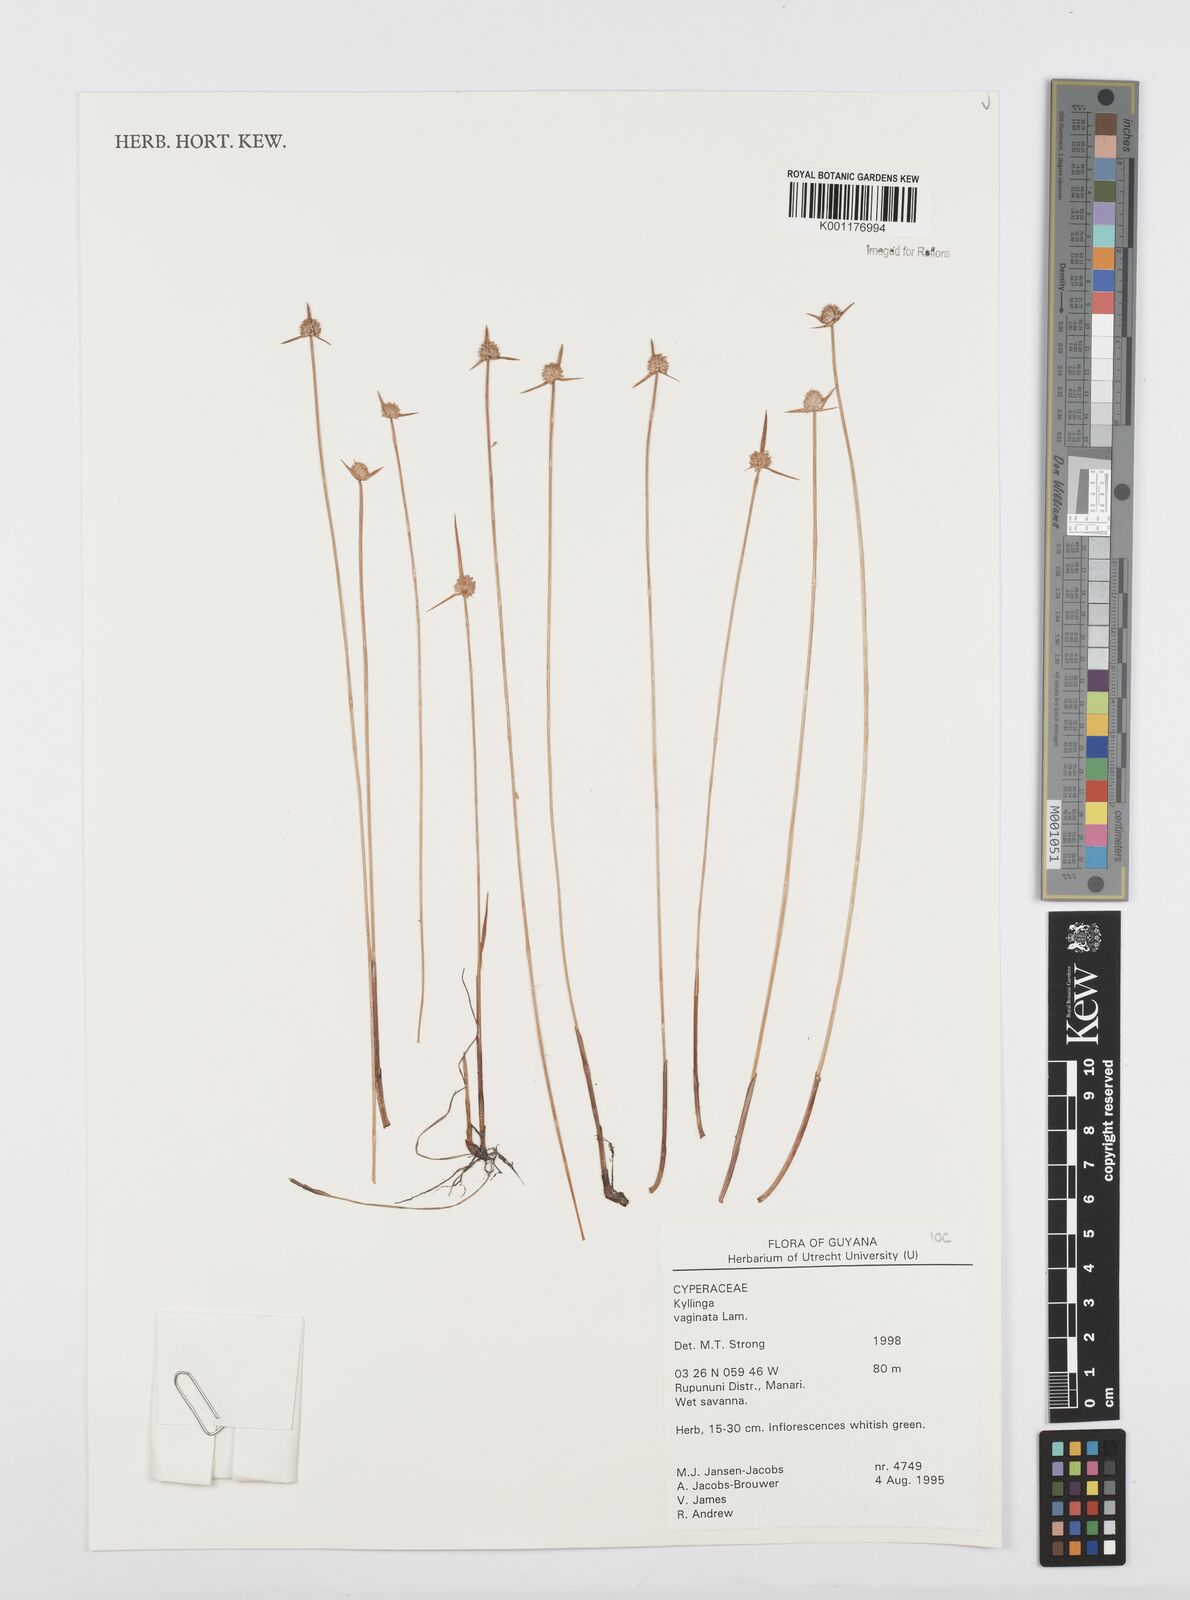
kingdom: Plantae
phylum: Tracheophyta
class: Liliopsida
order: Poales
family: Cyperaceae
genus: Cyperus
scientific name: Cyperus obtusatus
